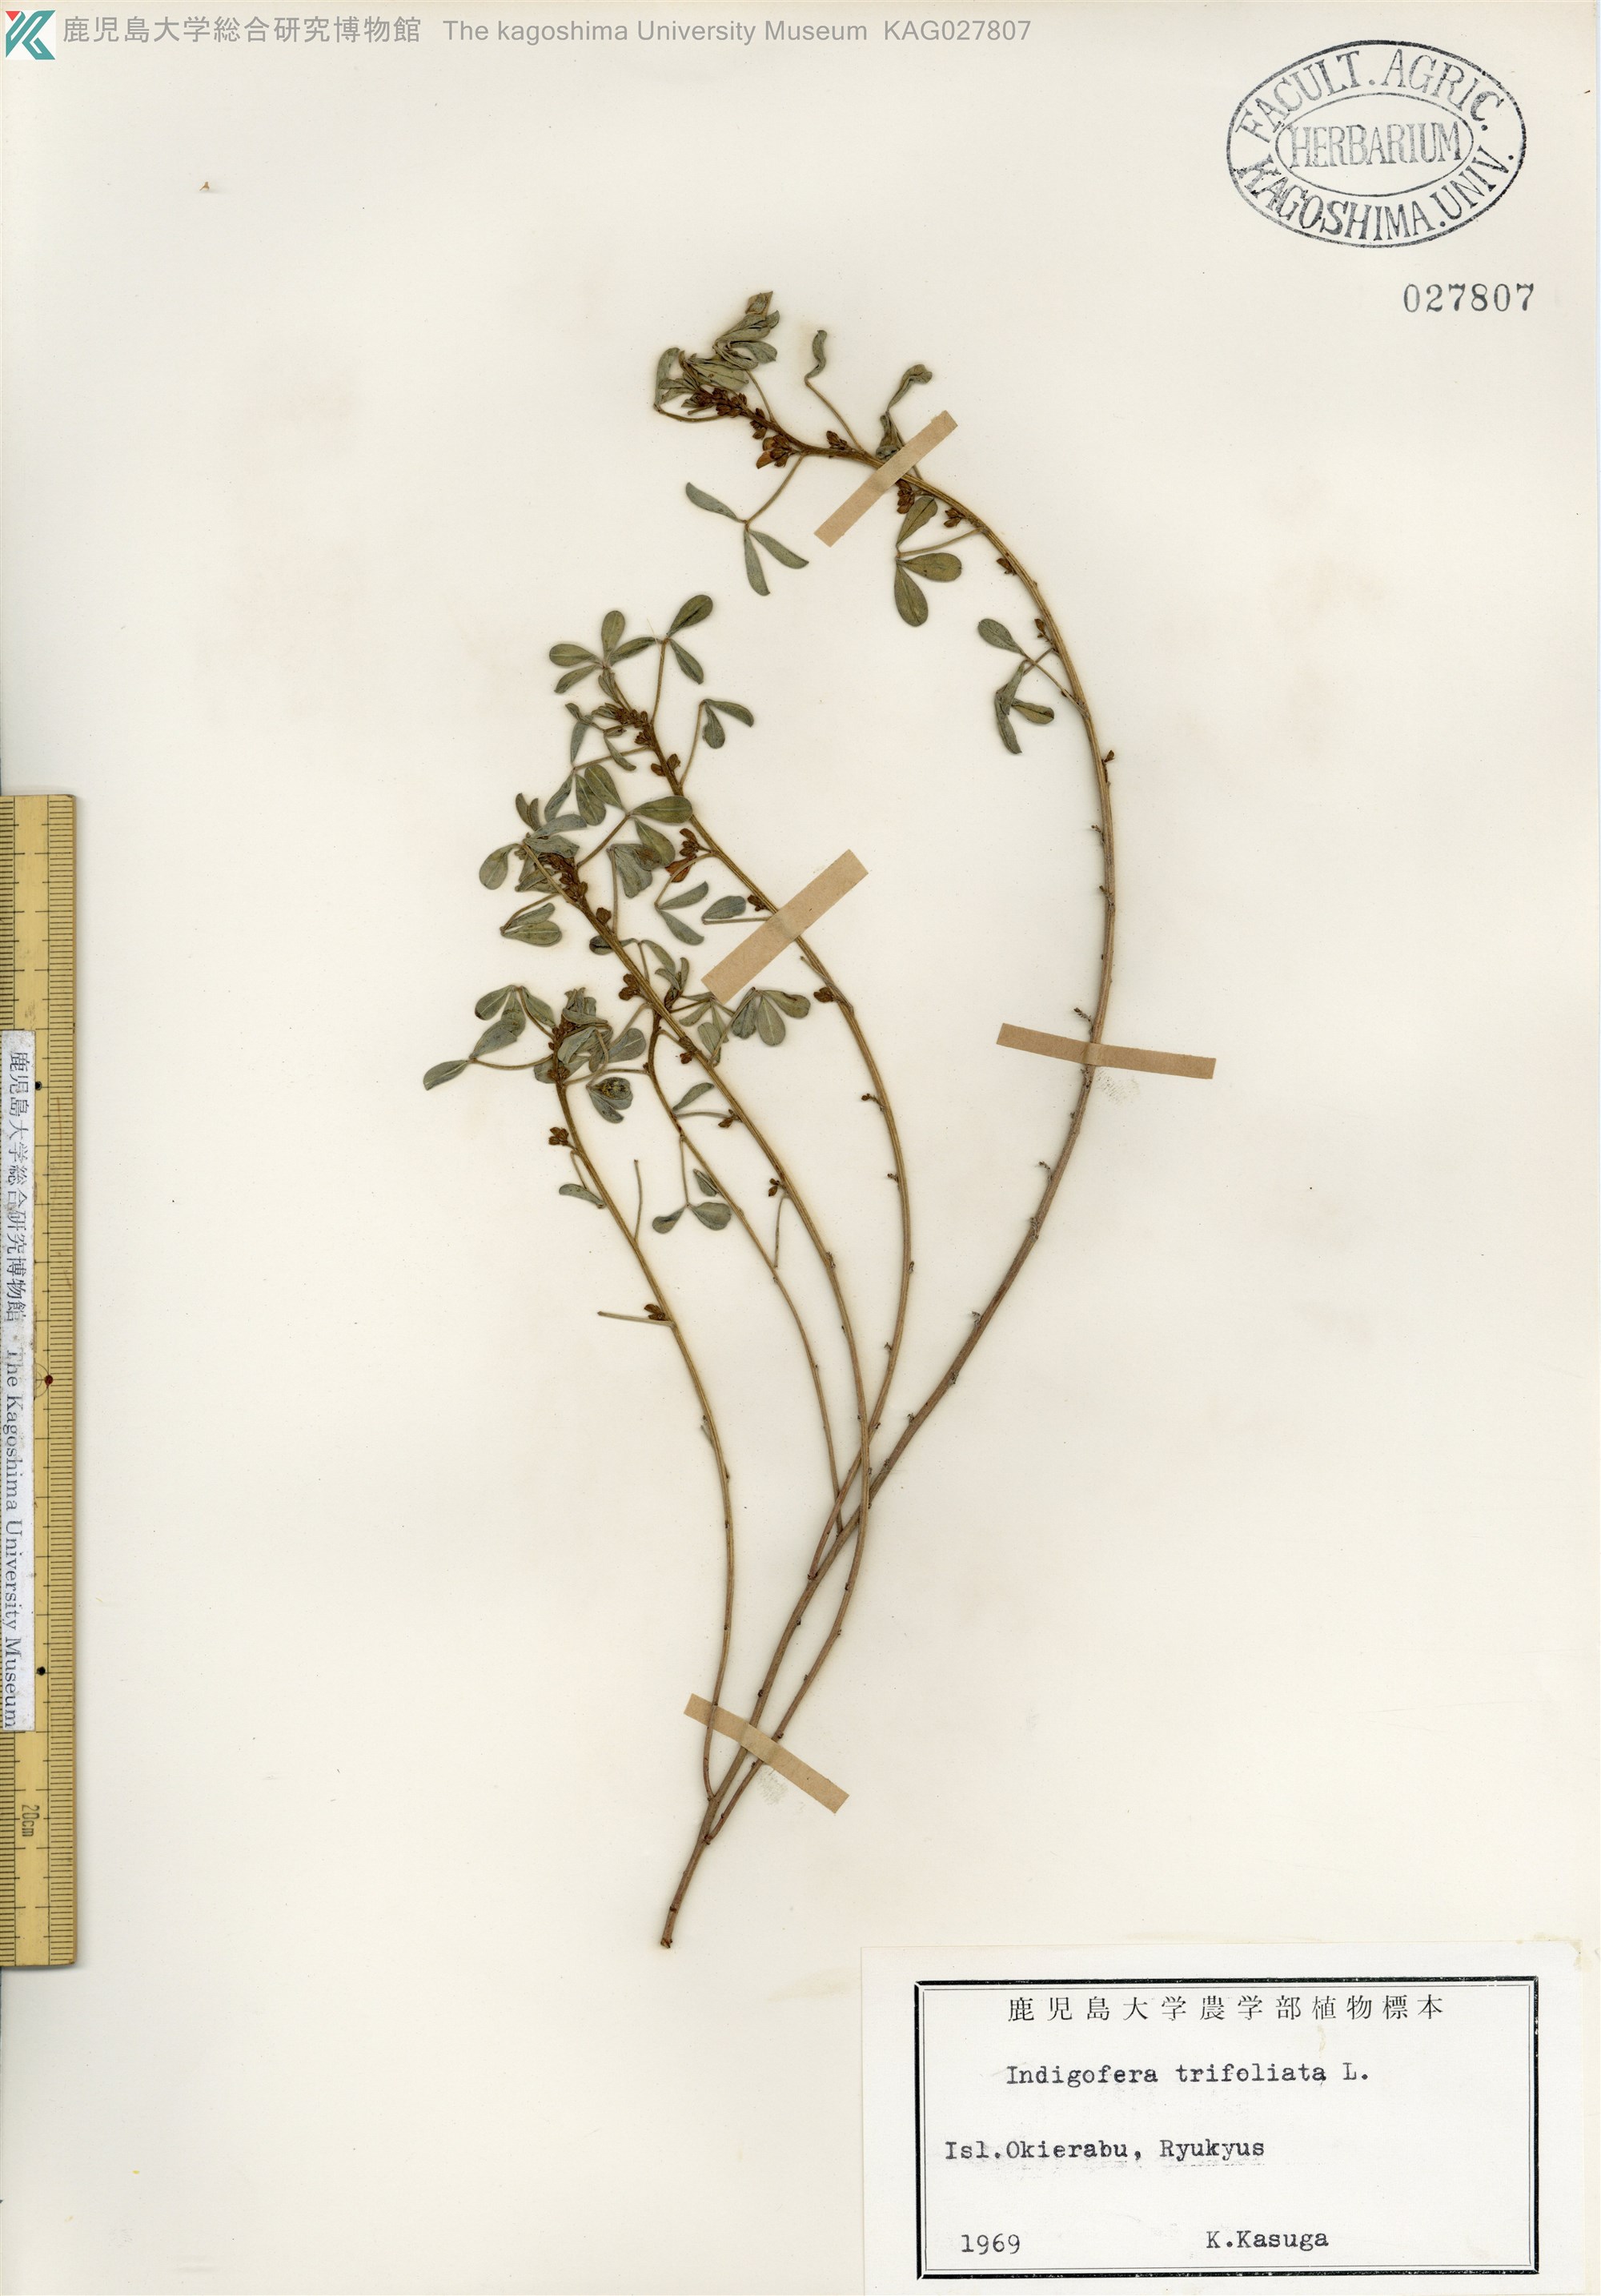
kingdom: Plantae
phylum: Tracheophyta
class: Magnoliopsida
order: Fabales
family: Fabaceae
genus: Indigofera
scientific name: Indigofera trifoliata
